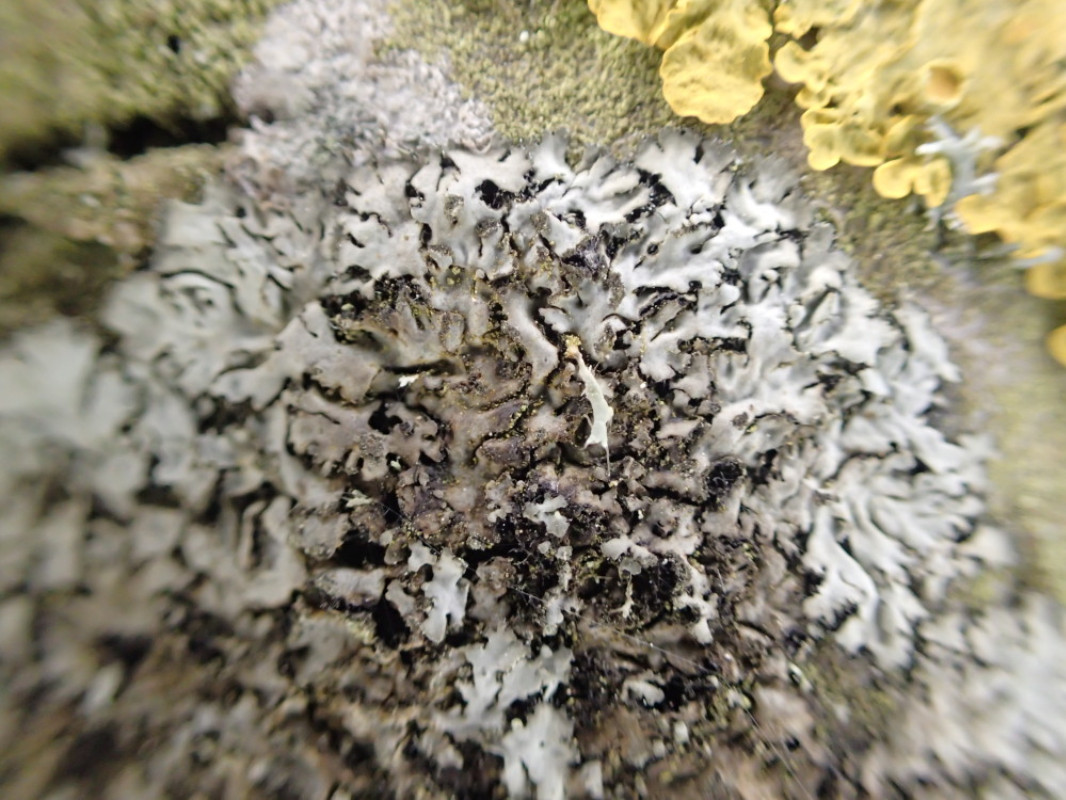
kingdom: Fungi
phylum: Ascomycota
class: Lecanoromycetes
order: Caliciales
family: Physciaceae
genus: Phaeophyscia
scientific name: Phaeophyscia orbicularis
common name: grågrøn rosetlav
